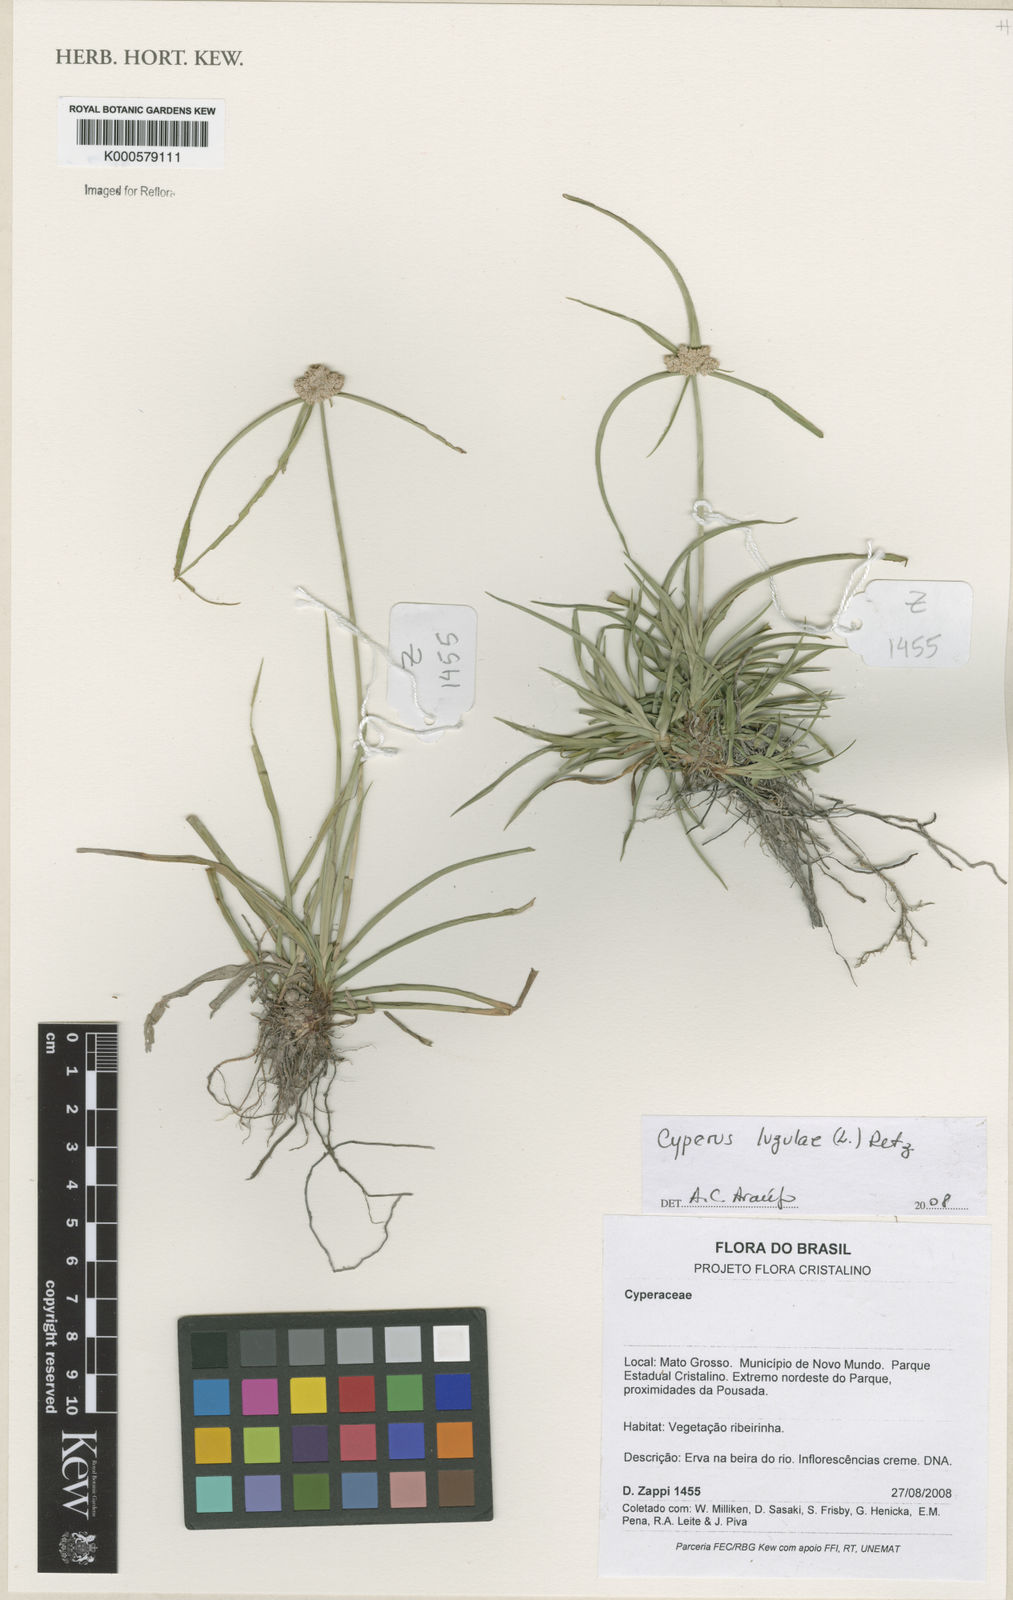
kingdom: Plantae
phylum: Tracheophyta
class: Liliopsida
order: Poales
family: Cyperaceae
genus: Cyperus
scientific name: Cyperus luzulae
